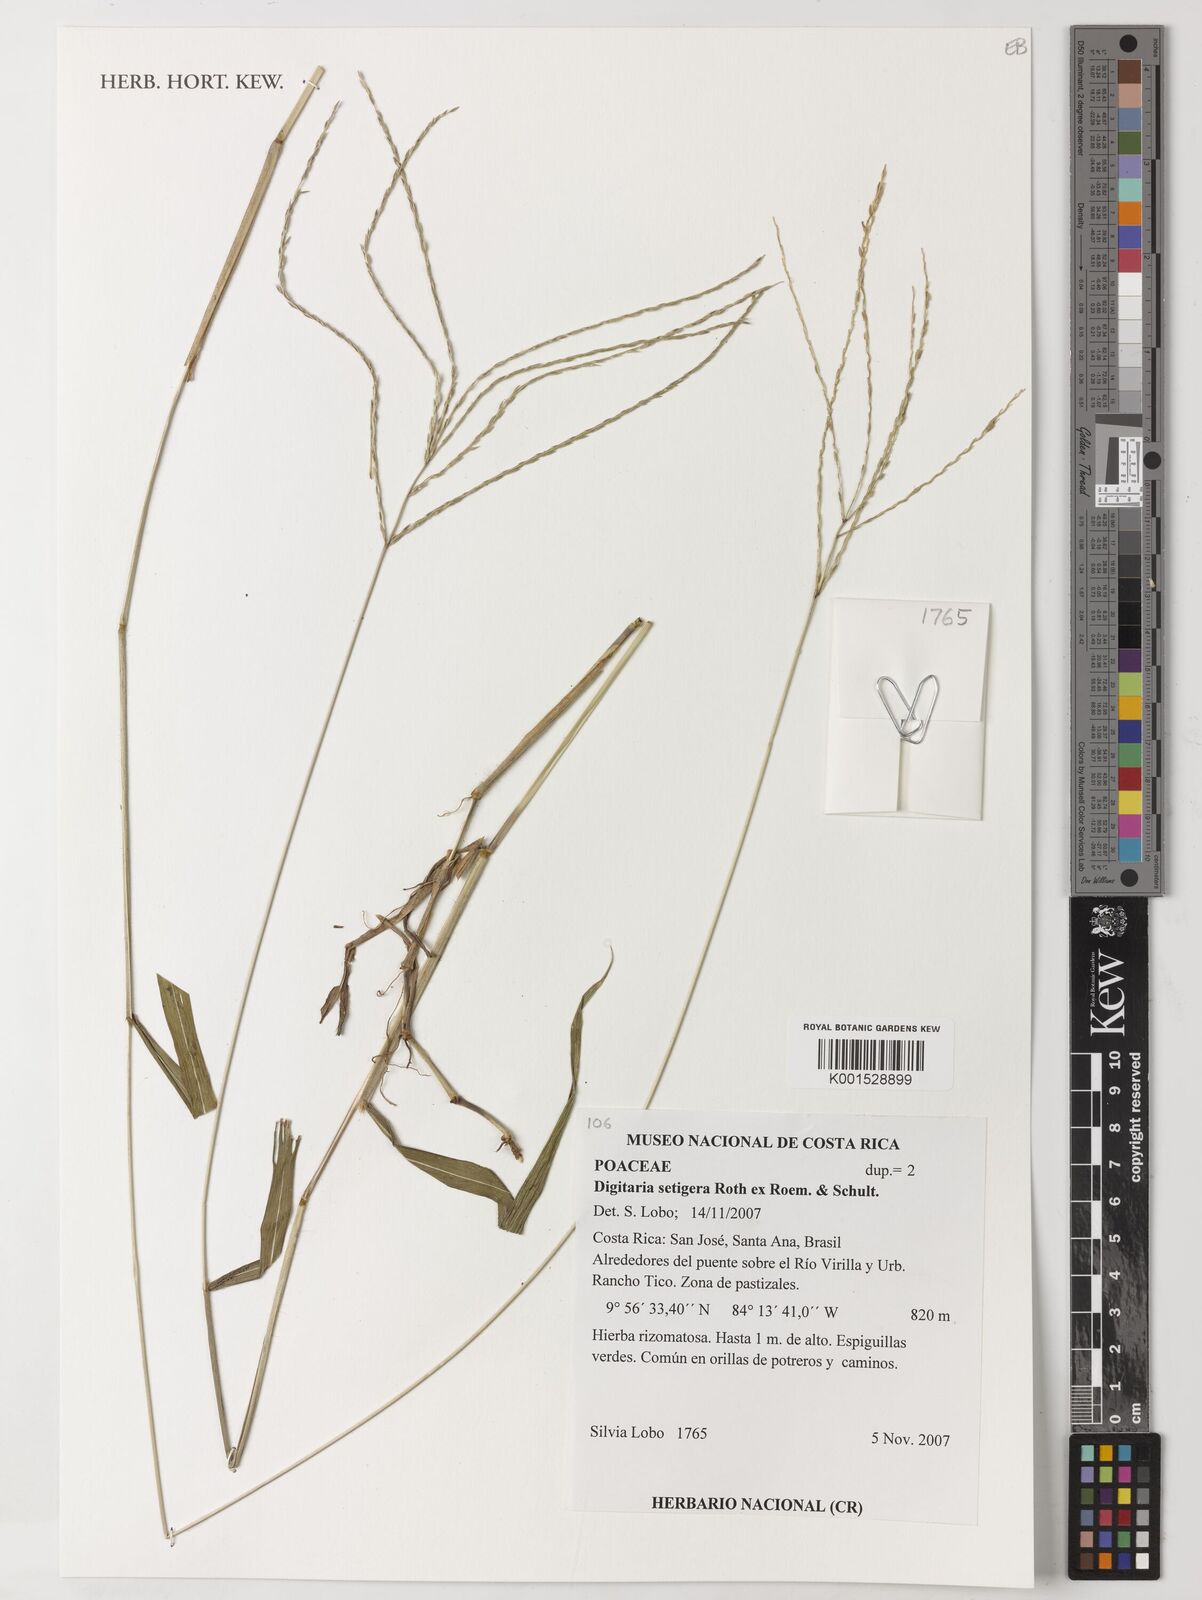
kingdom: Plantae
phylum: Tracheophyta
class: Liliopsida
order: Poales
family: Poaceae
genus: Digitaria
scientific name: Digitaria setigera
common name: East indian crabgrass
